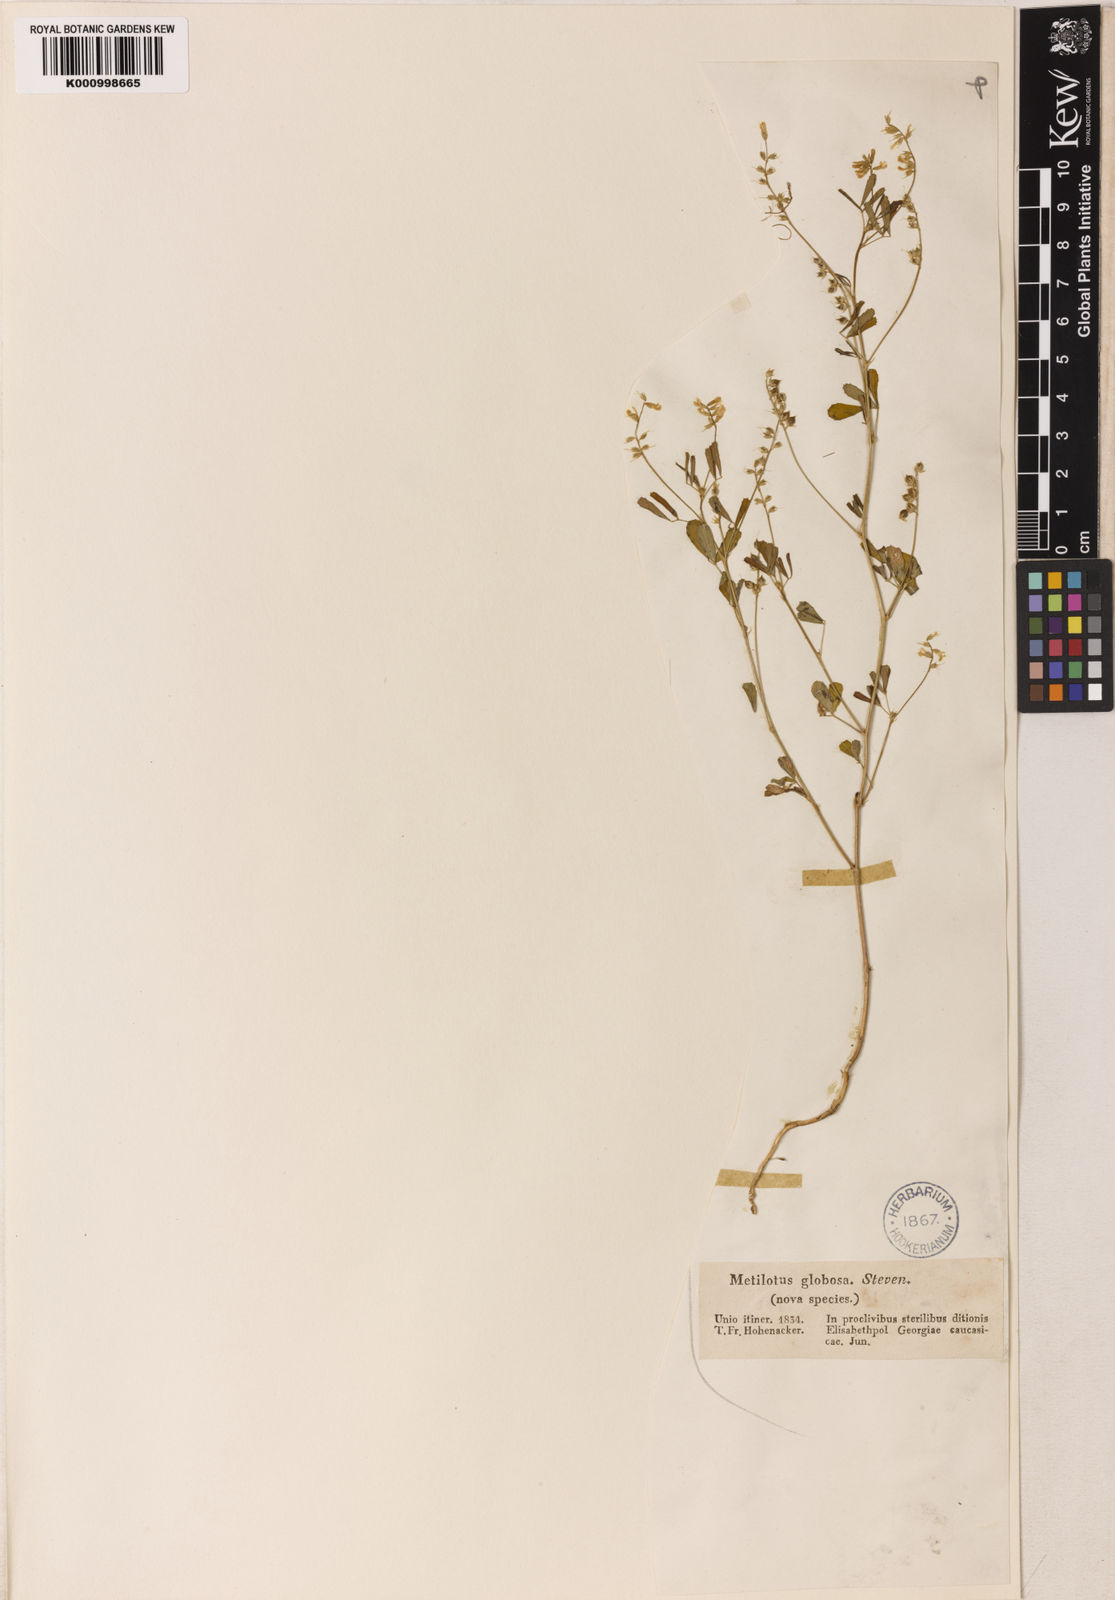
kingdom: Plantae
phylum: Tracheophyta
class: Magnoliopsida
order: Fabales
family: Fabaceae
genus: Melilotus
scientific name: Melilotus
